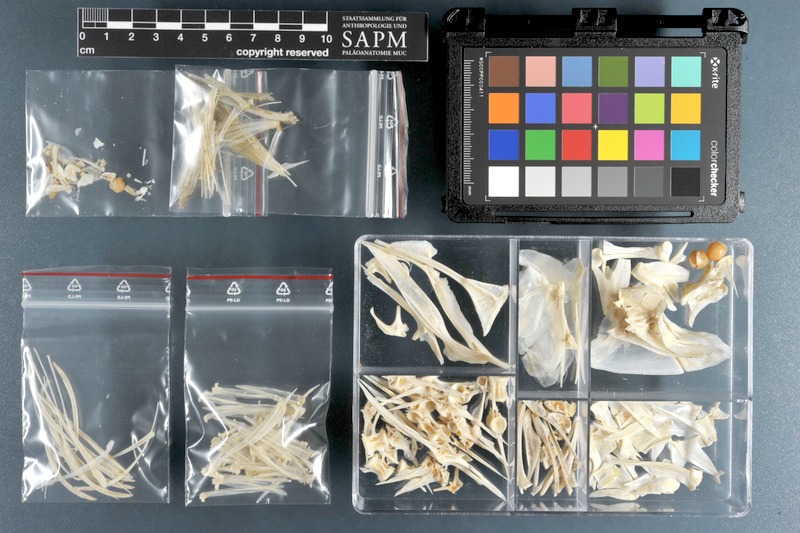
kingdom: Animalia
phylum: Chordata
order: Perciformes
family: Carangidae
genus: Alectis
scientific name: Alectis ciliaris
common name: African pompano
